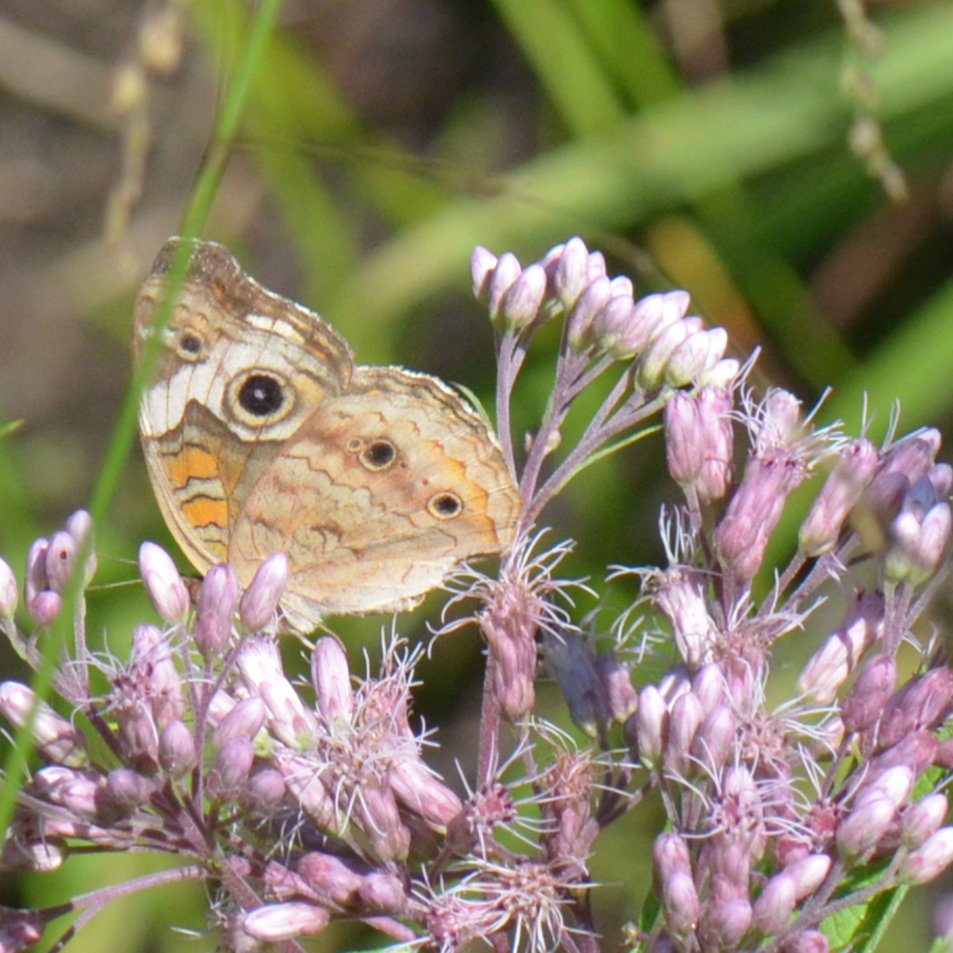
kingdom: Animalia
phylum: Arthropoda
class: Insecta
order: Lepidoptera
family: Nymphalidae
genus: Junonia
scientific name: Junonia coenia
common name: Common Buckeye
